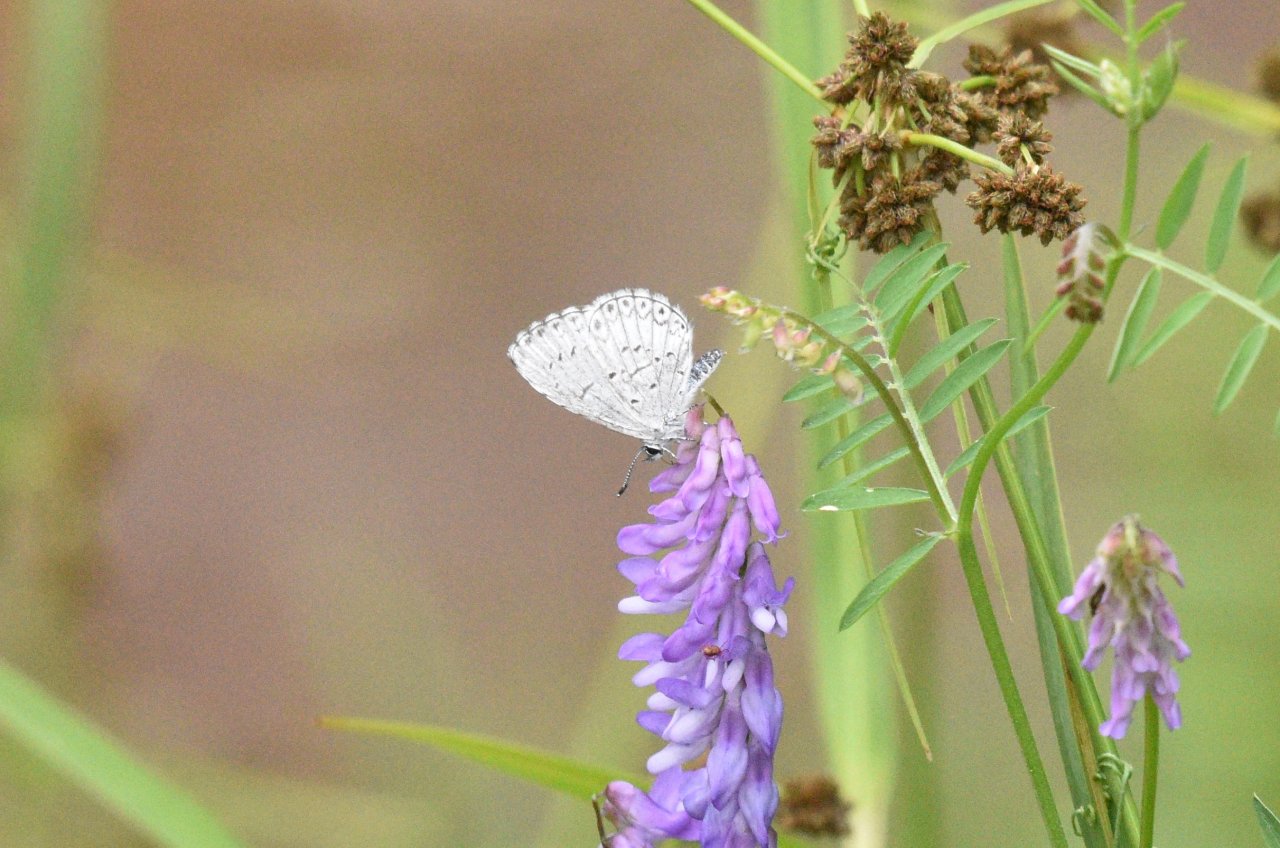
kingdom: Animalia
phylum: Arthropoda
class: Insecta
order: Lepidoptera
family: Lycaenidae
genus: Celastrina
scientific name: Celastrina lucia
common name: Northern Spring Azure
